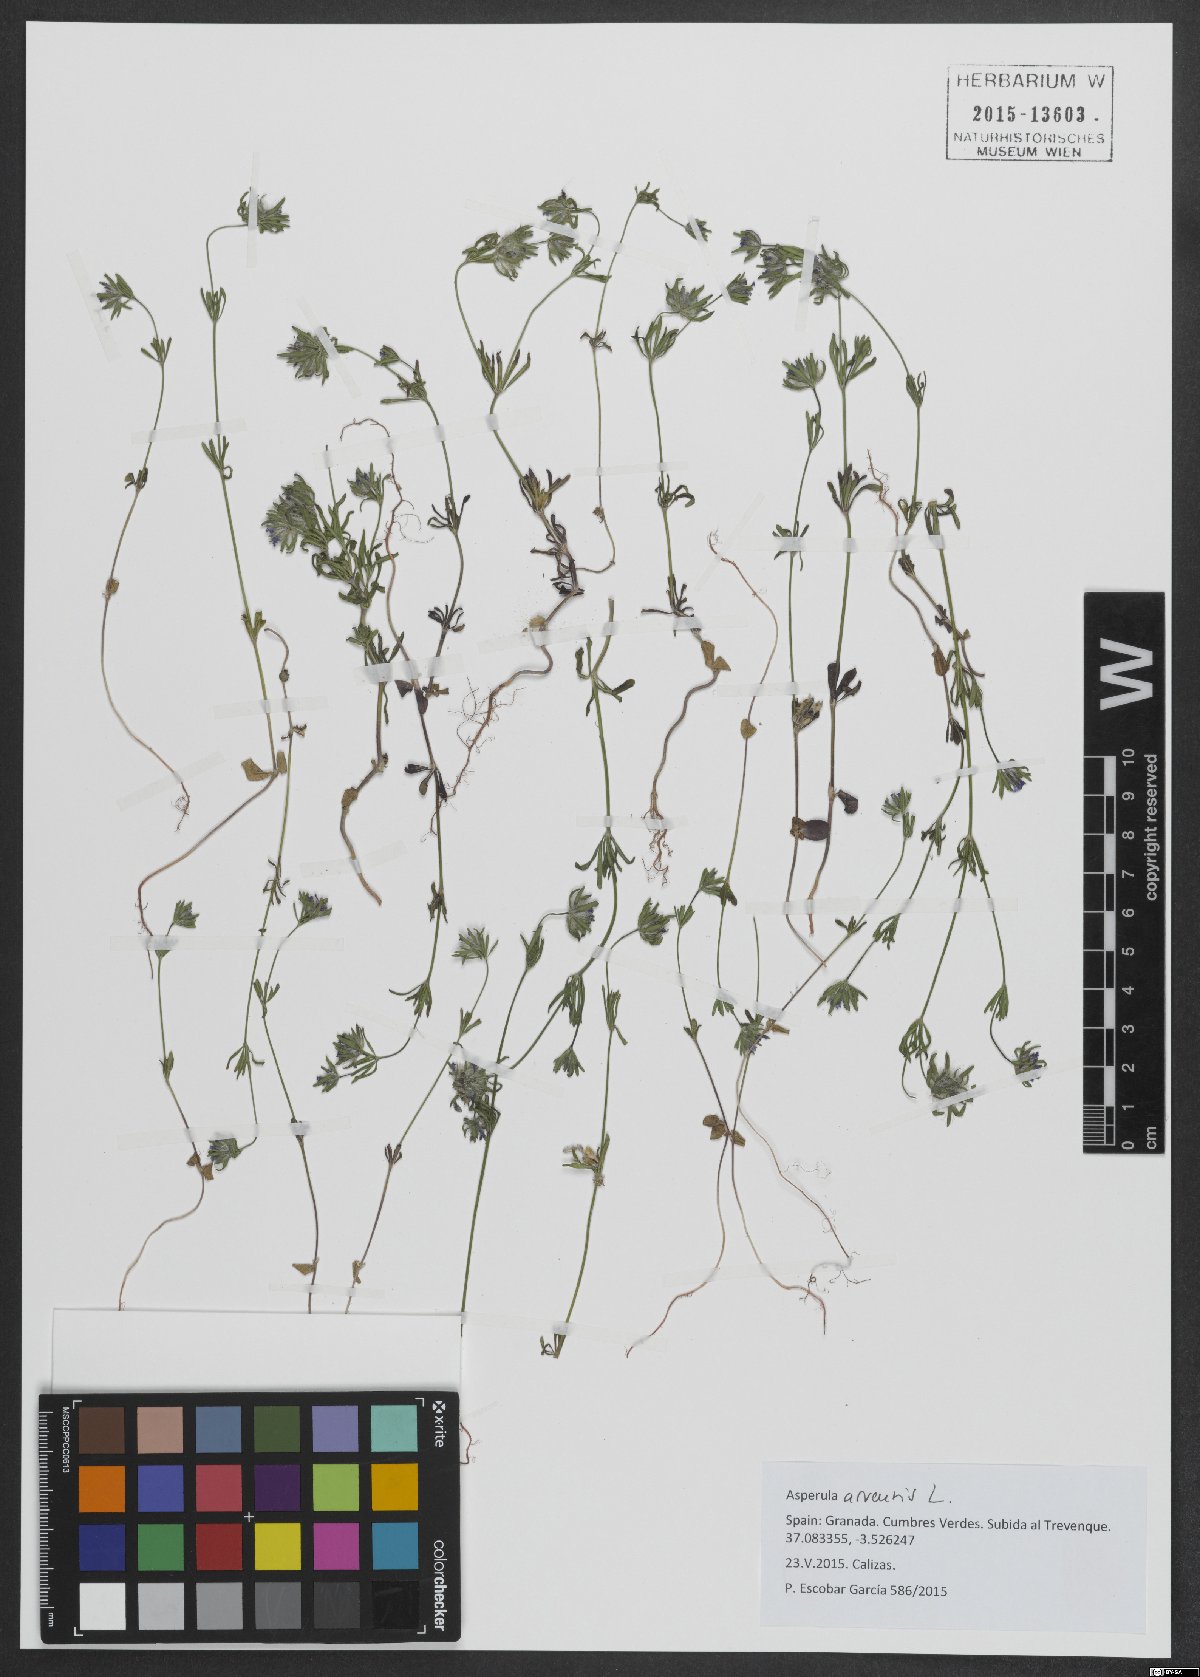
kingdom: Plantae
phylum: Tracheophyta
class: Magnoliopsida
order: Gentianales
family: Rubiaceae
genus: Asperula
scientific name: Asperula arvensis
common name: Blue woodruff
